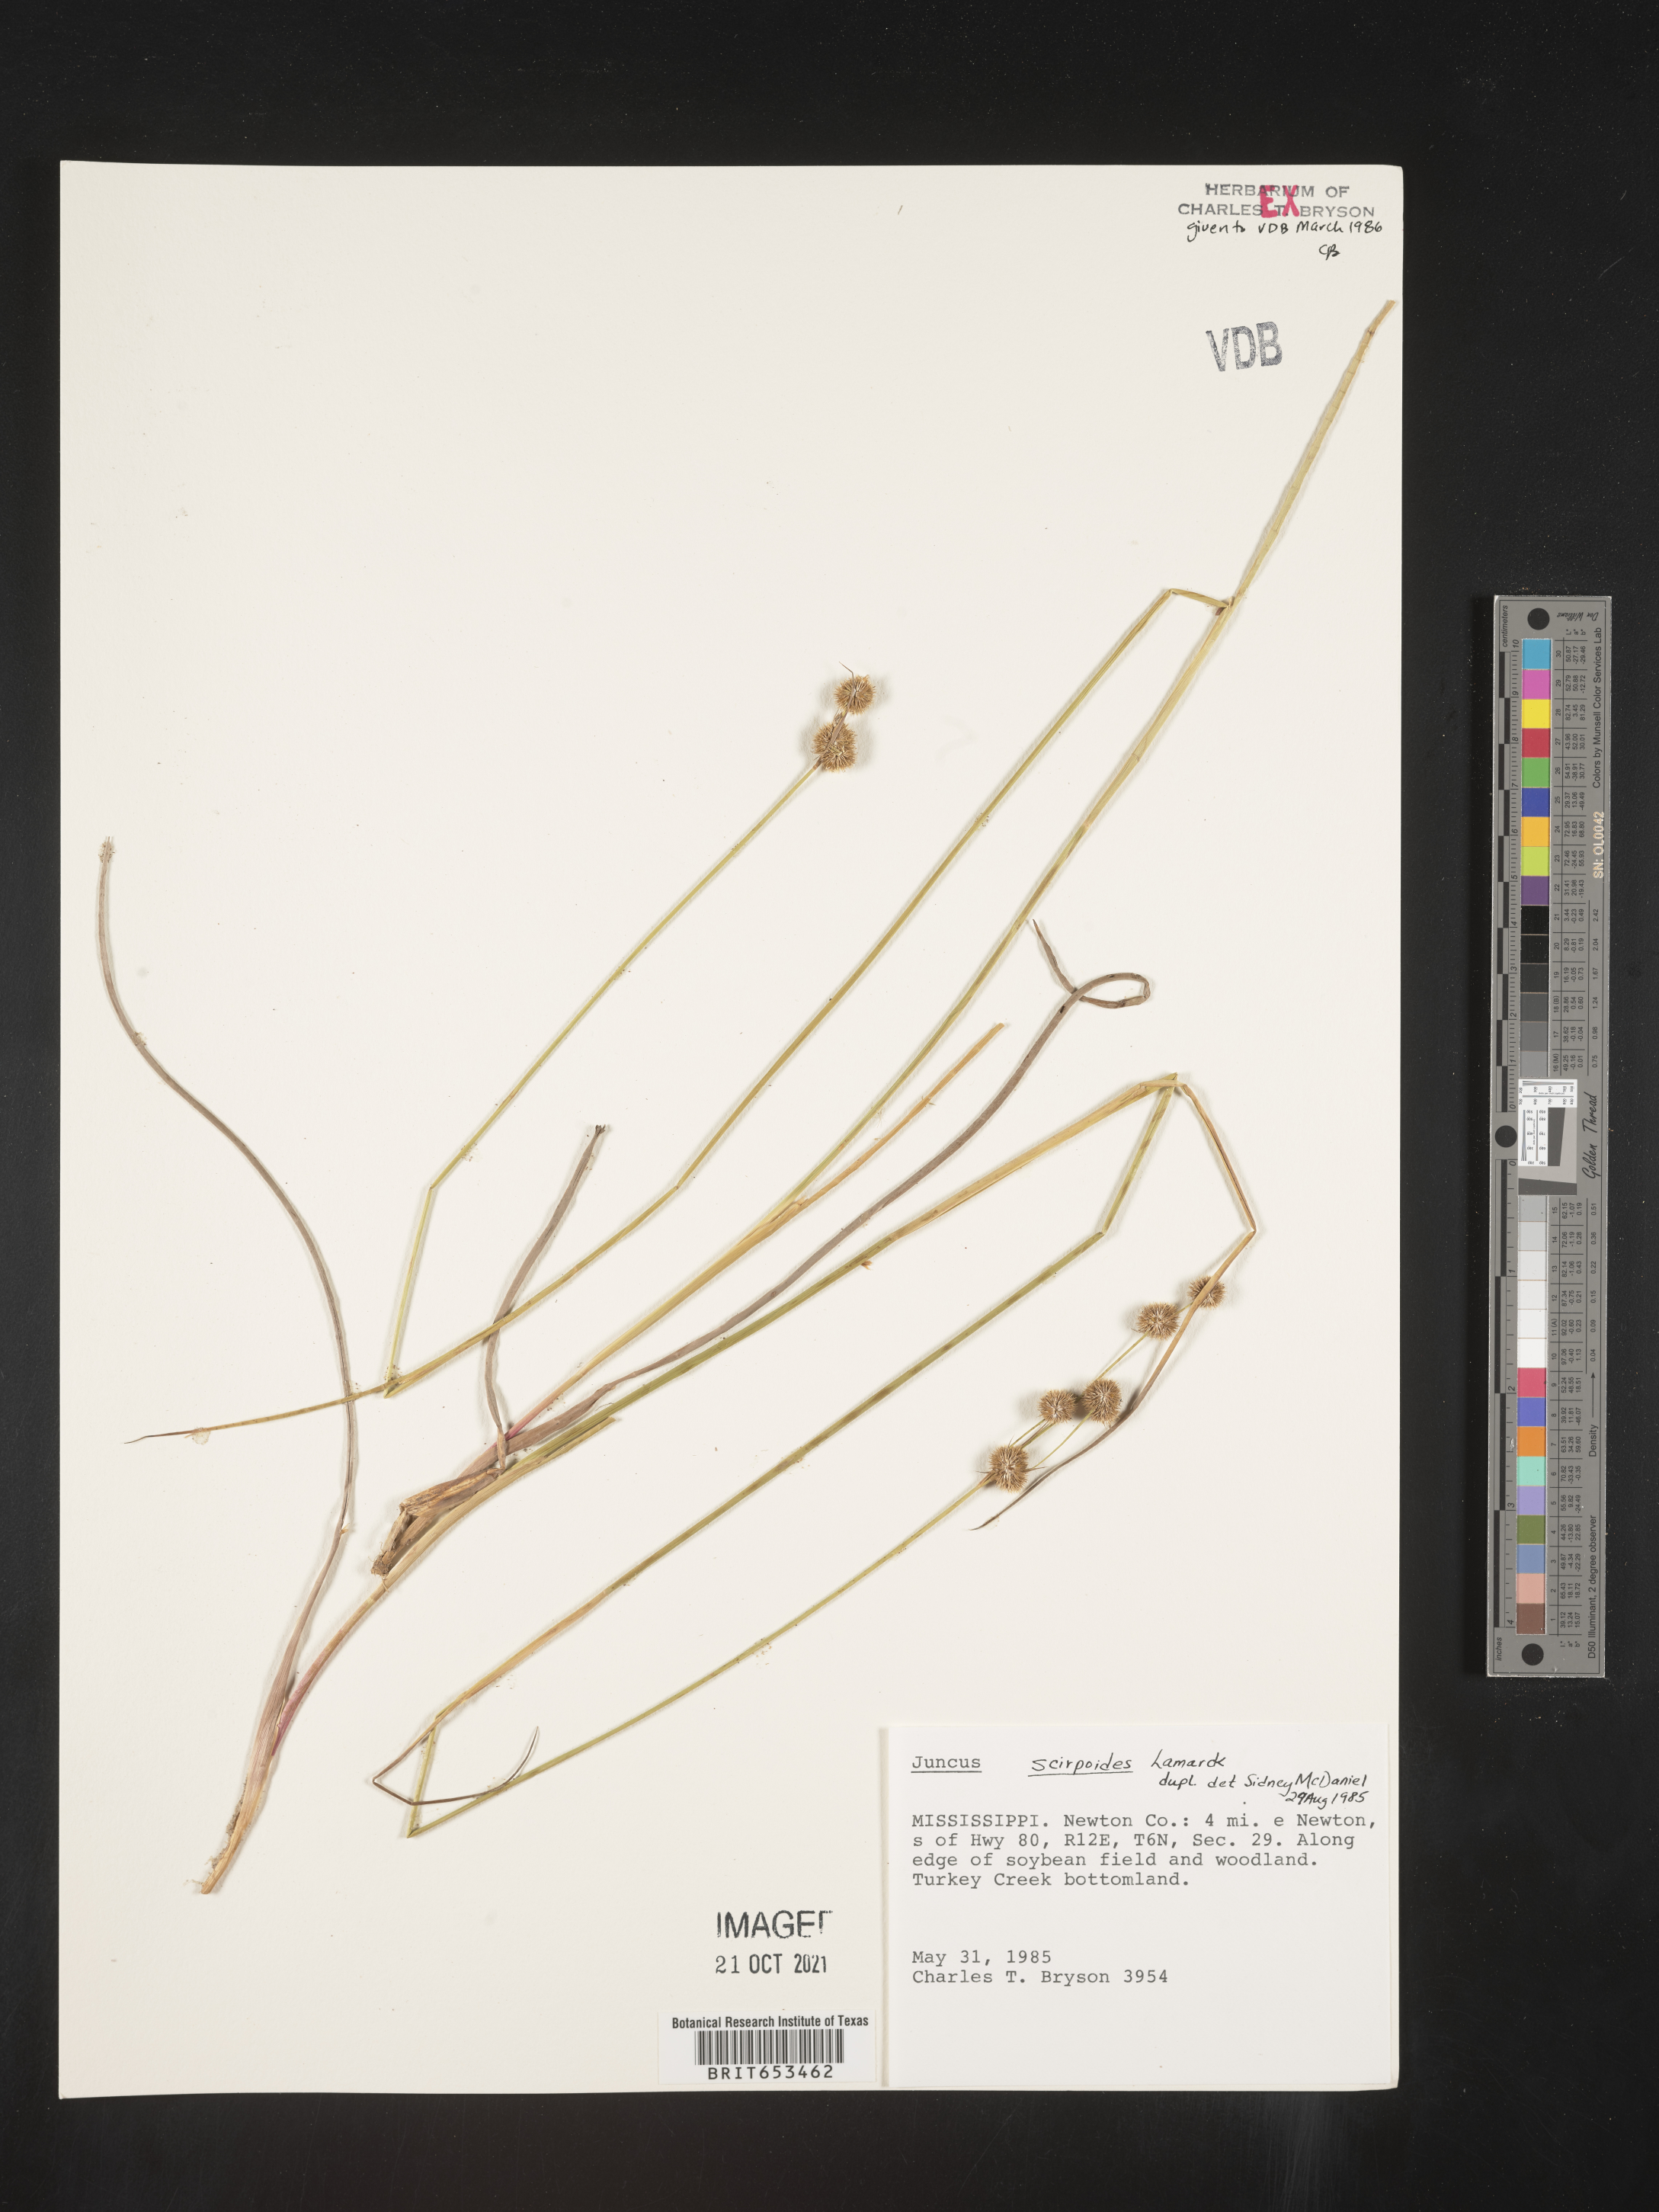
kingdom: Plantae
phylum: Tracheophyta
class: Liliopsida
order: Poales
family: Juncaceae
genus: Juncus
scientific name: Juncus scirpoides
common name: Needlepod rush
